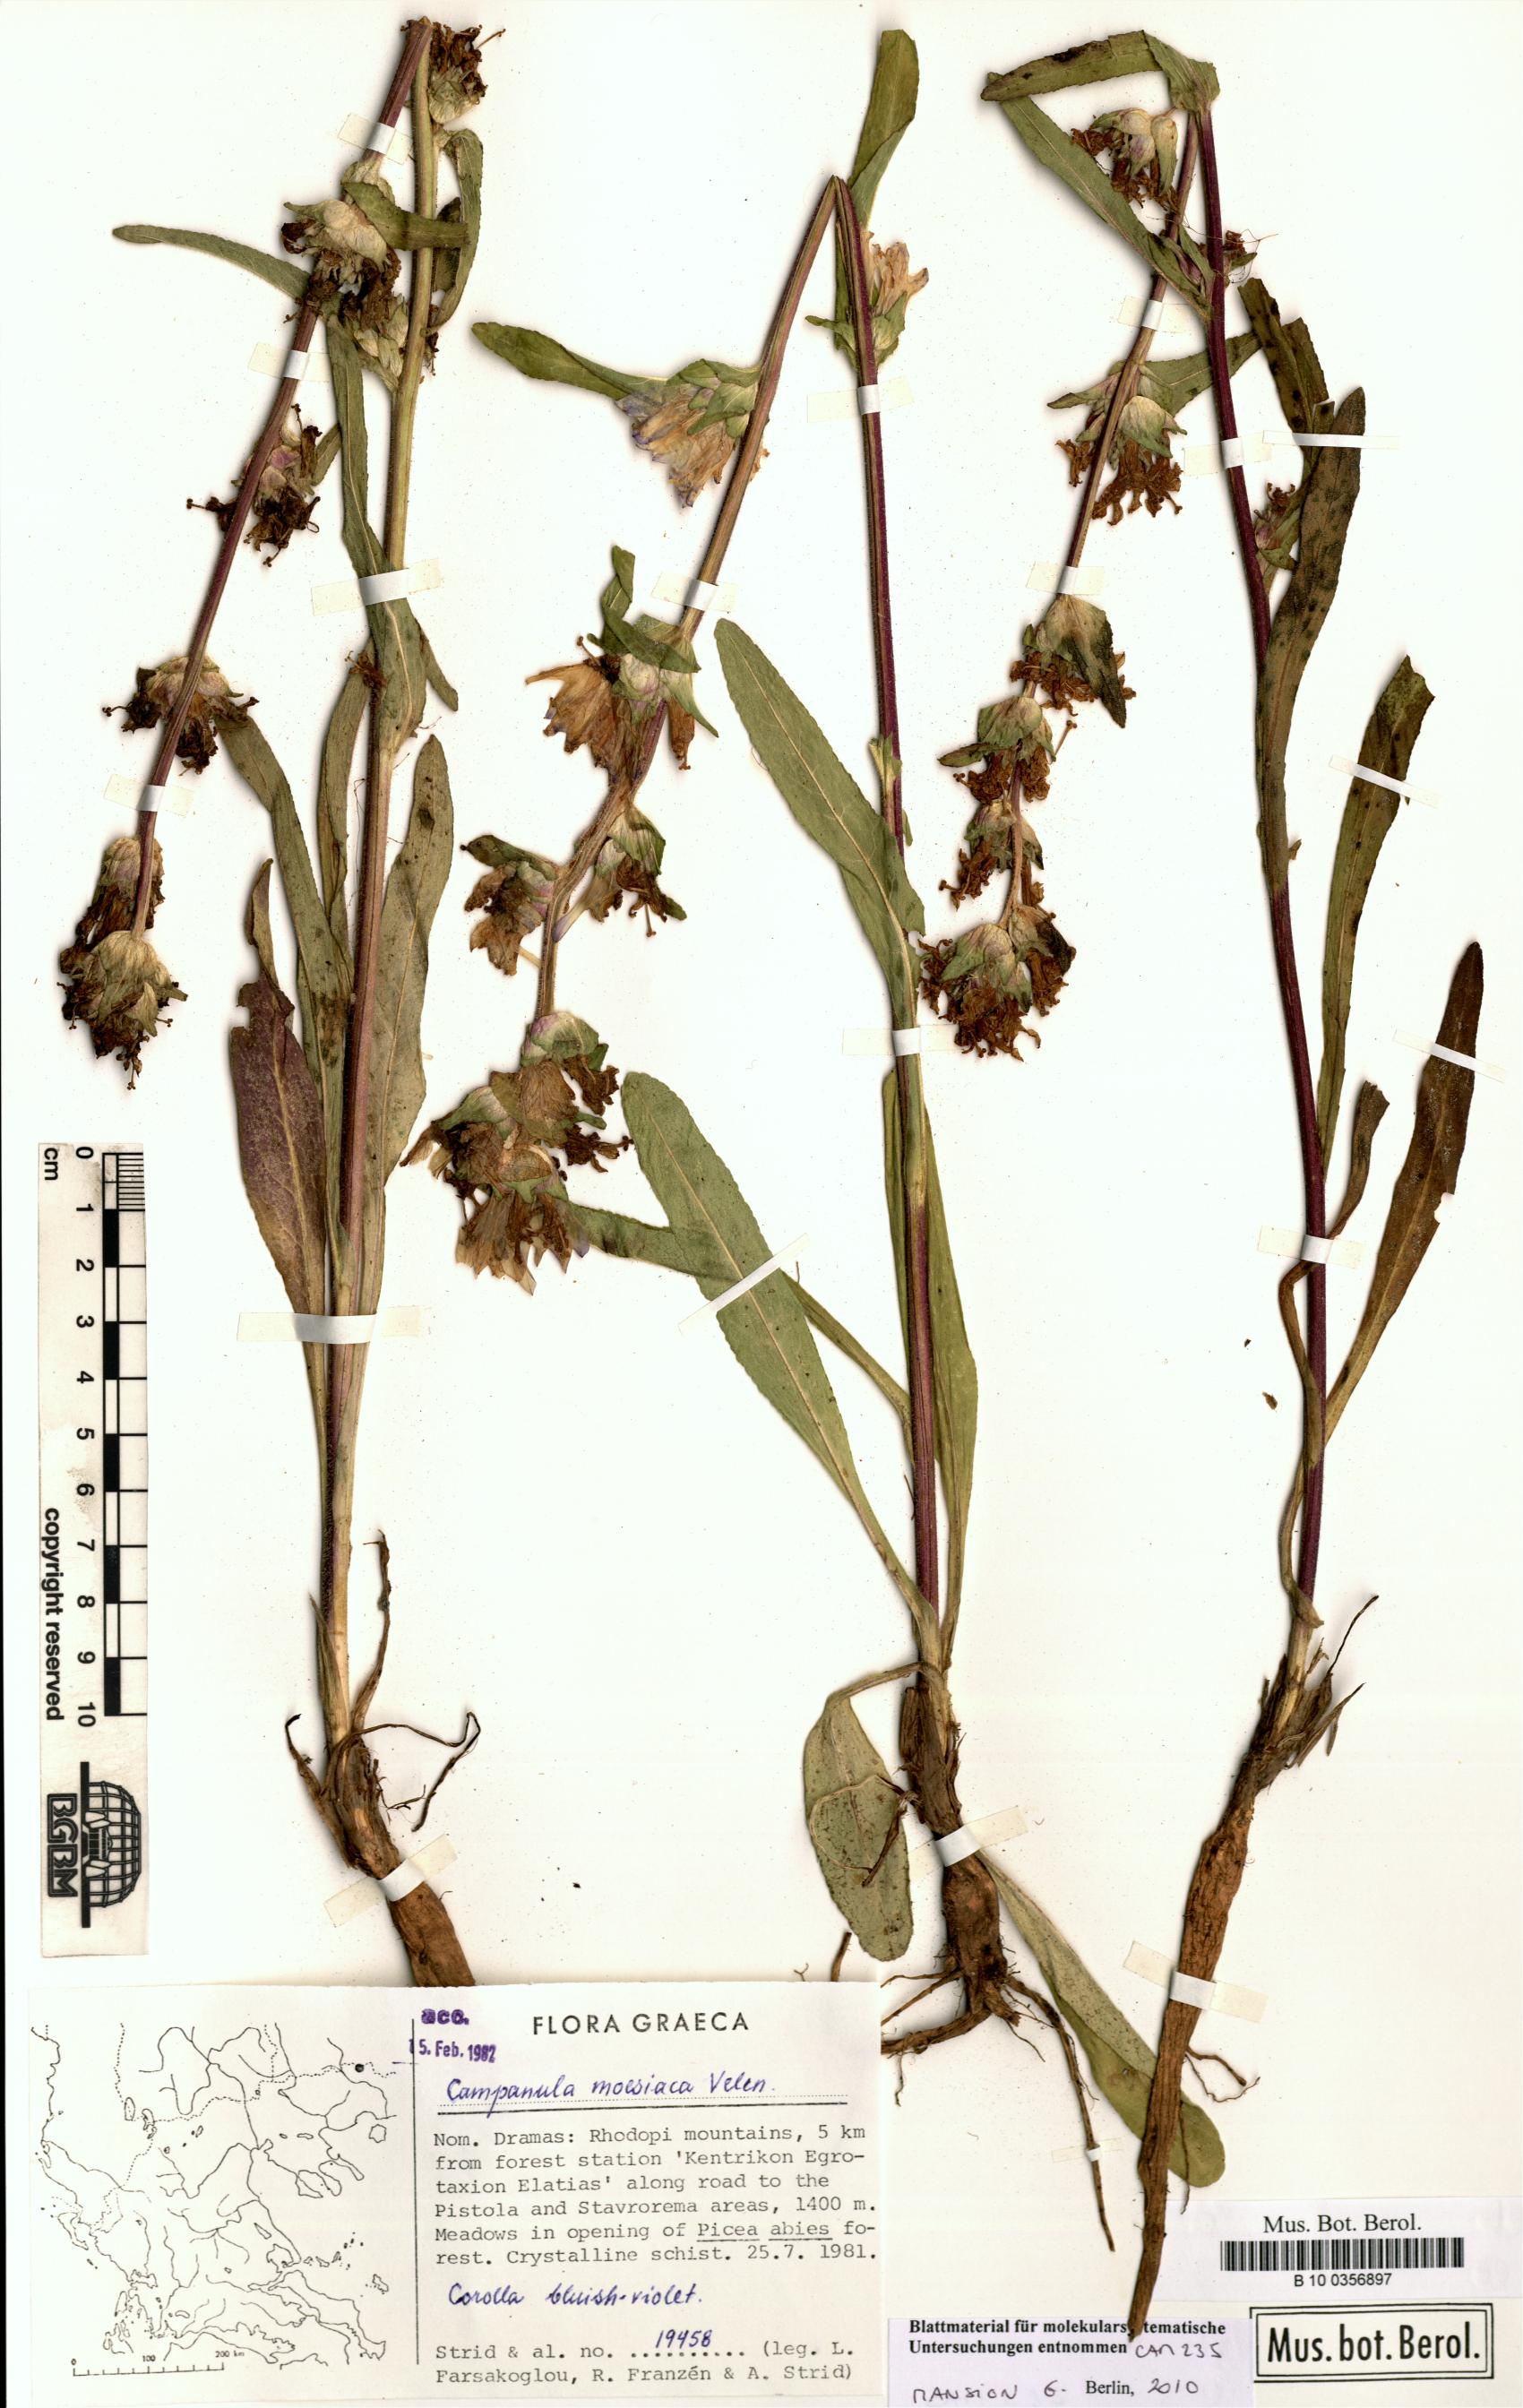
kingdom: Plantae
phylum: Tracheophyta
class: Magnoliopsida
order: Asterales
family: Campanulaceae
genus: Campanula
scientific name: Campanula moesiaca
